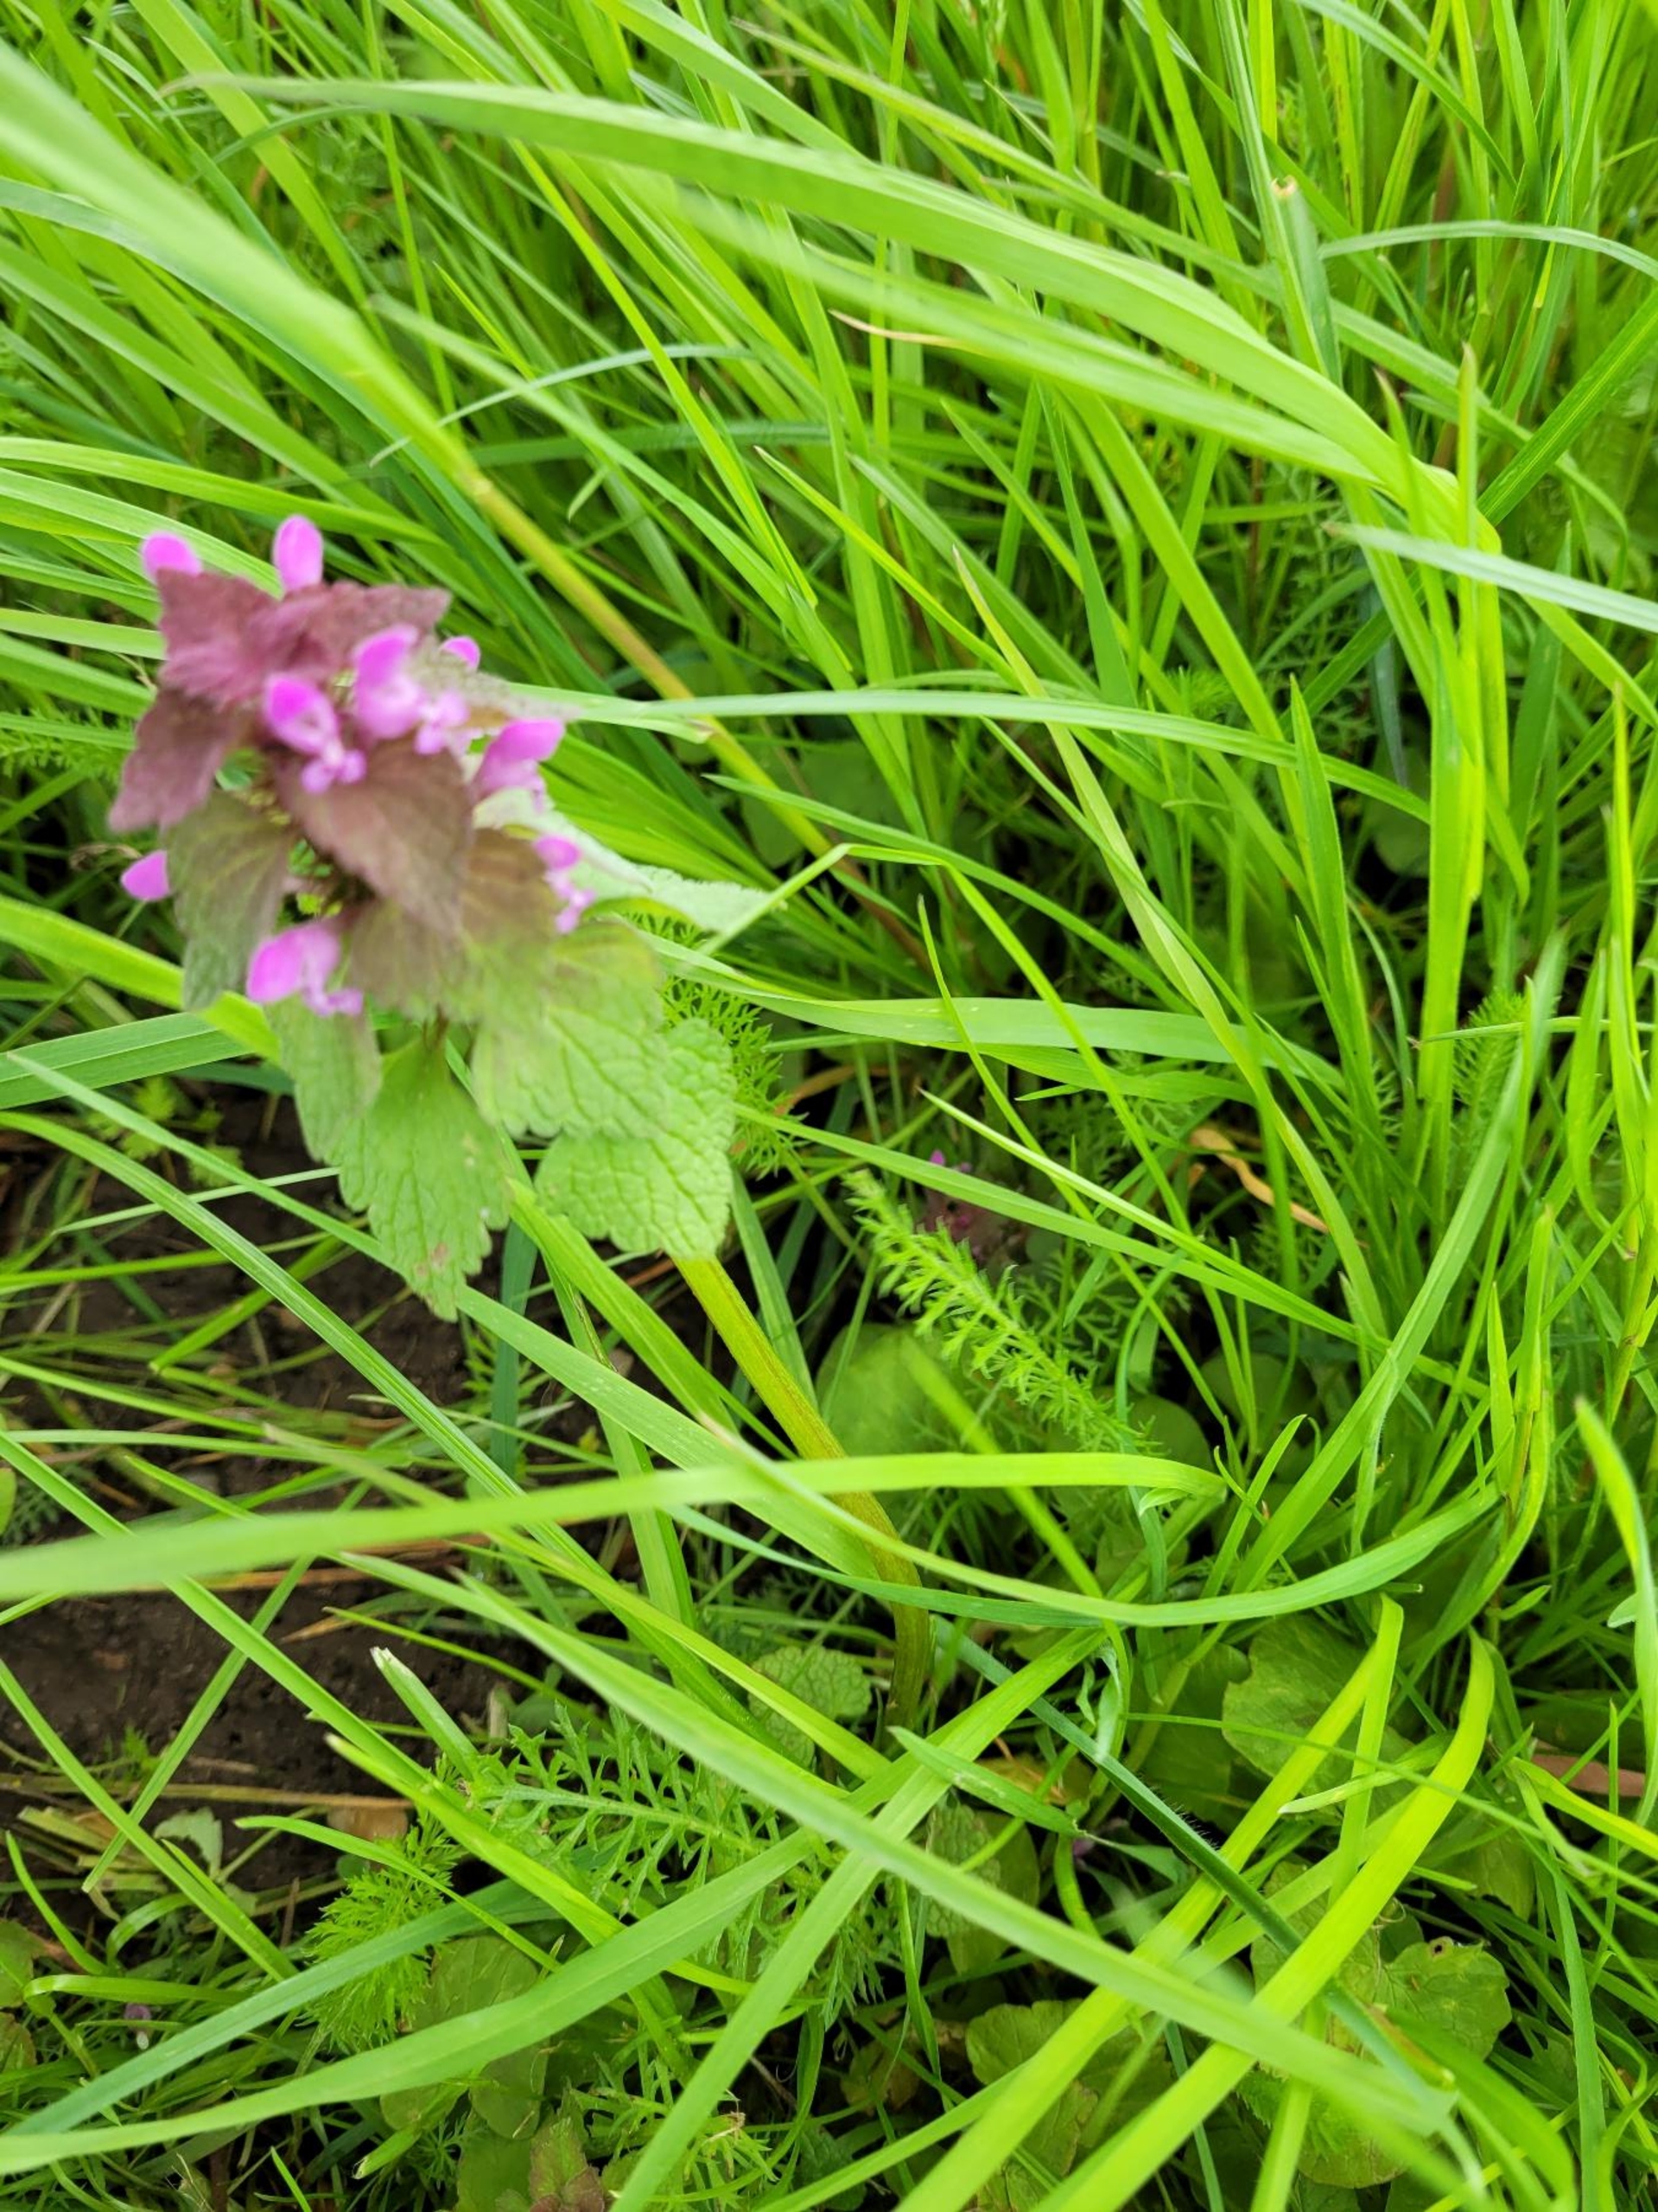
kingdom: Plantae
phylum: Tracheophyta
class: Magnoliopsida
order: Lamiales
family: Lamiaceae
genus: Lamium
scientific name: Lamium purpureum
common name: Rød tvetand
